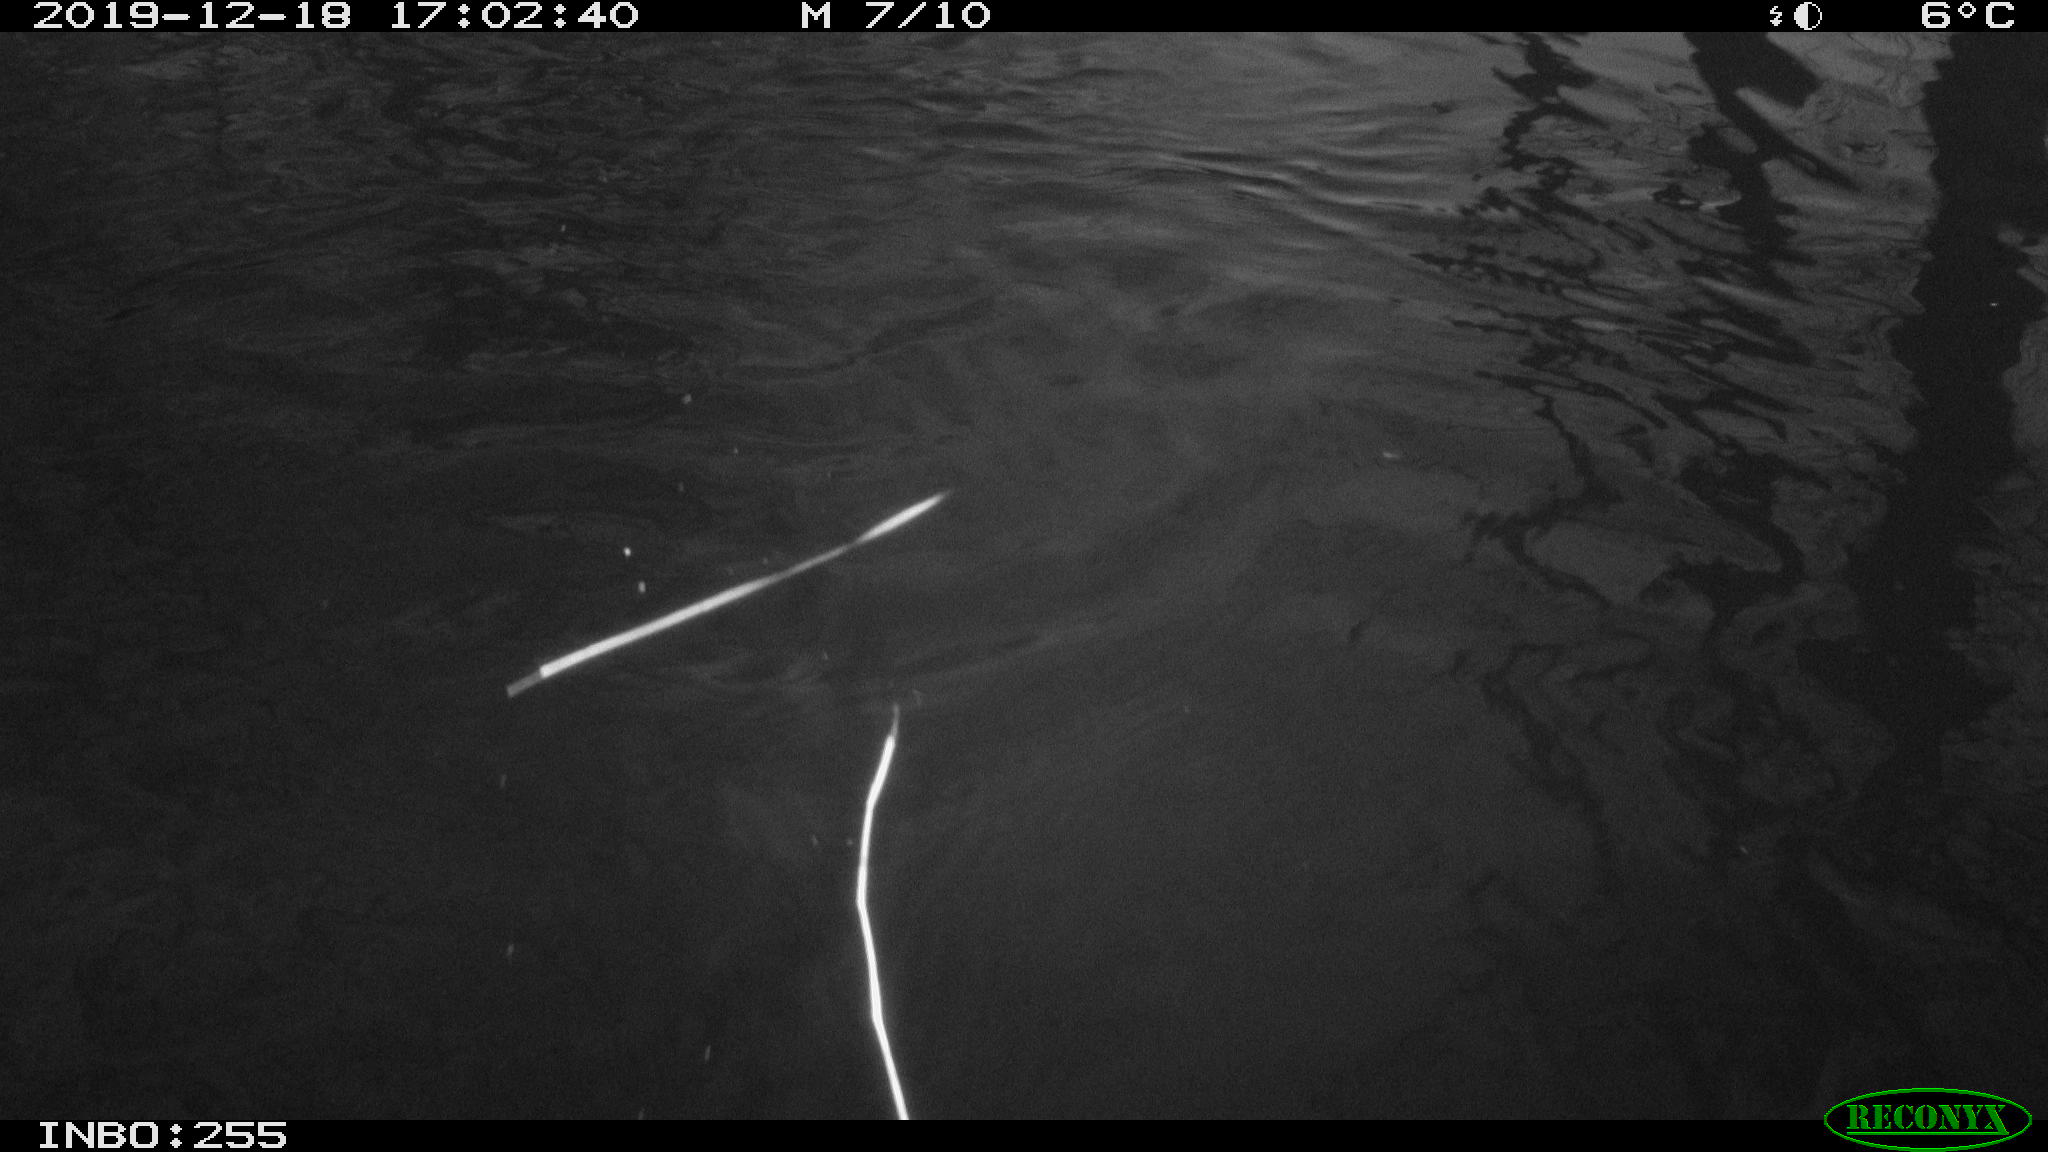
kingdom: Animalia
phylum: Chordata
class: Aves
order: Gruiformes
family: Rallidae
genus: Gallinula
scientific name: Gallinula chloropus
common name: Common moorhen
